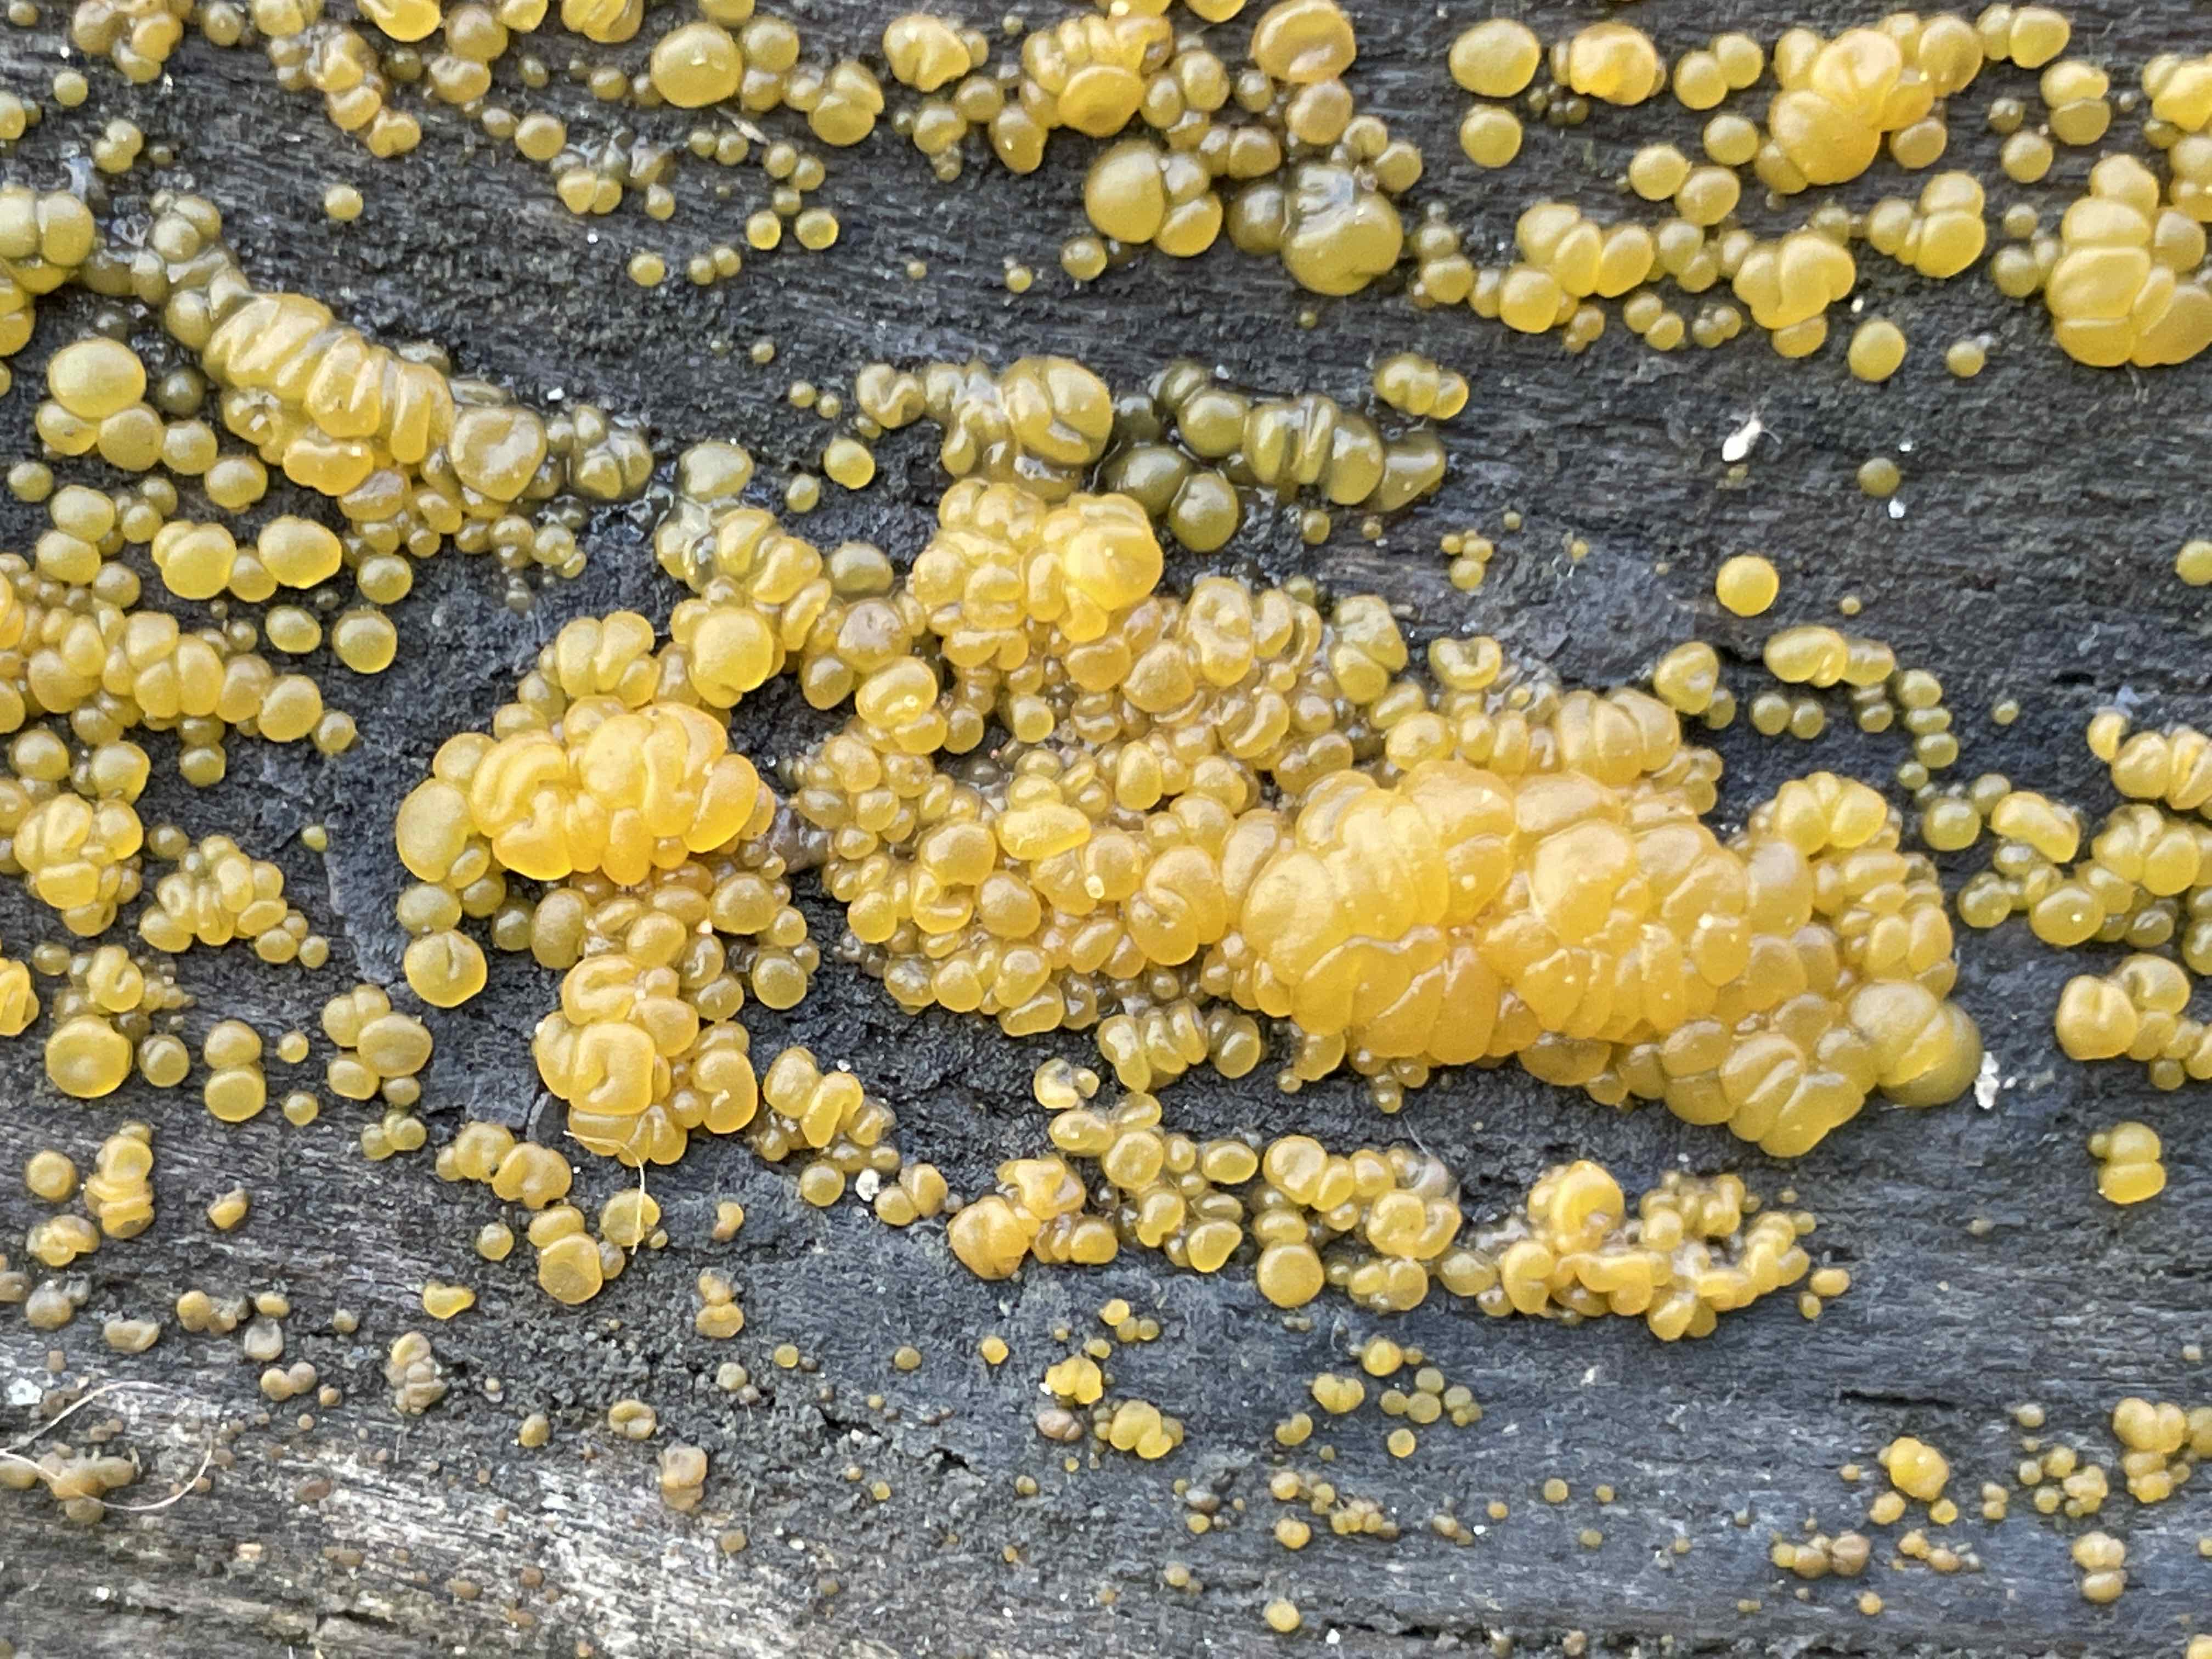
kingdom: Fungi
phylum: Basidiomycota
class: Dacrymycetes
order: Dacrymycetales
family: Dacrymycetaceae
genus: Dacrymyces
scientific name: Dacrymyces
